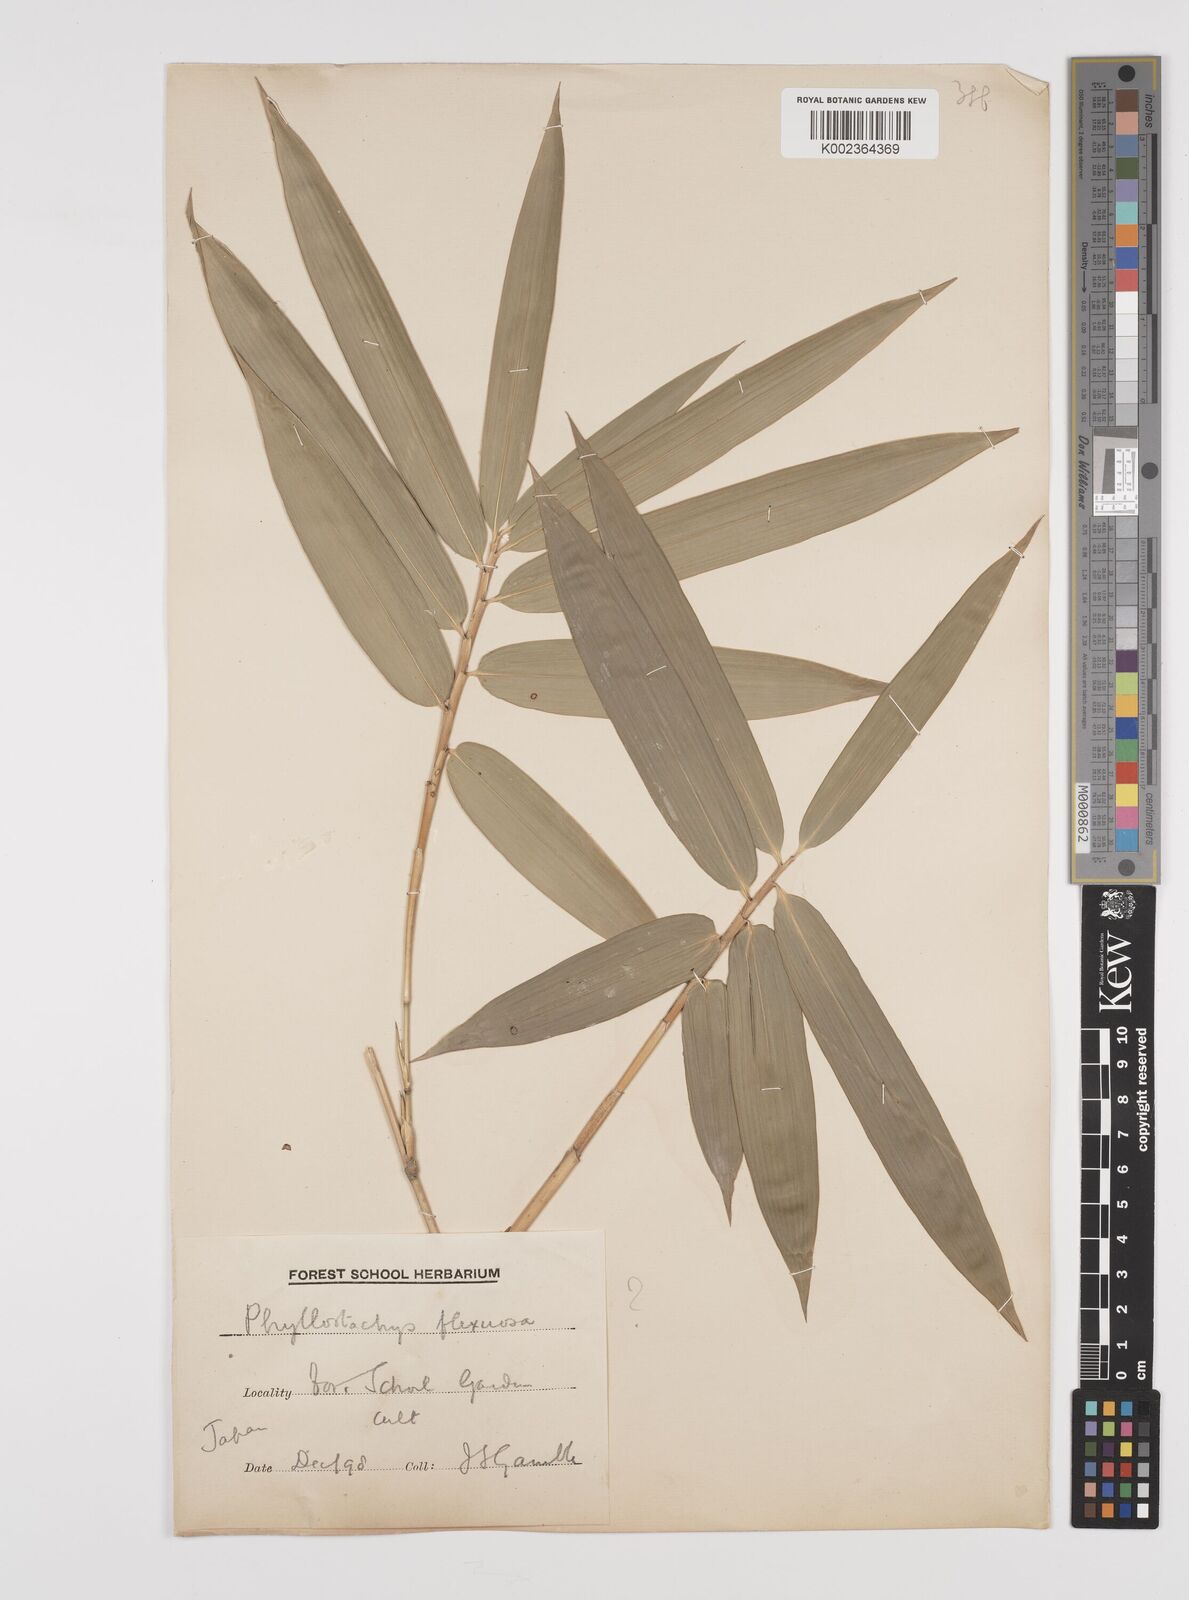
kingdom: Plantae
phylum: Tracheophyta
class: Liliopsida
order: Poales
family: Poaceae
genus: Phyllostachys
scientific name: Phyllostachys
